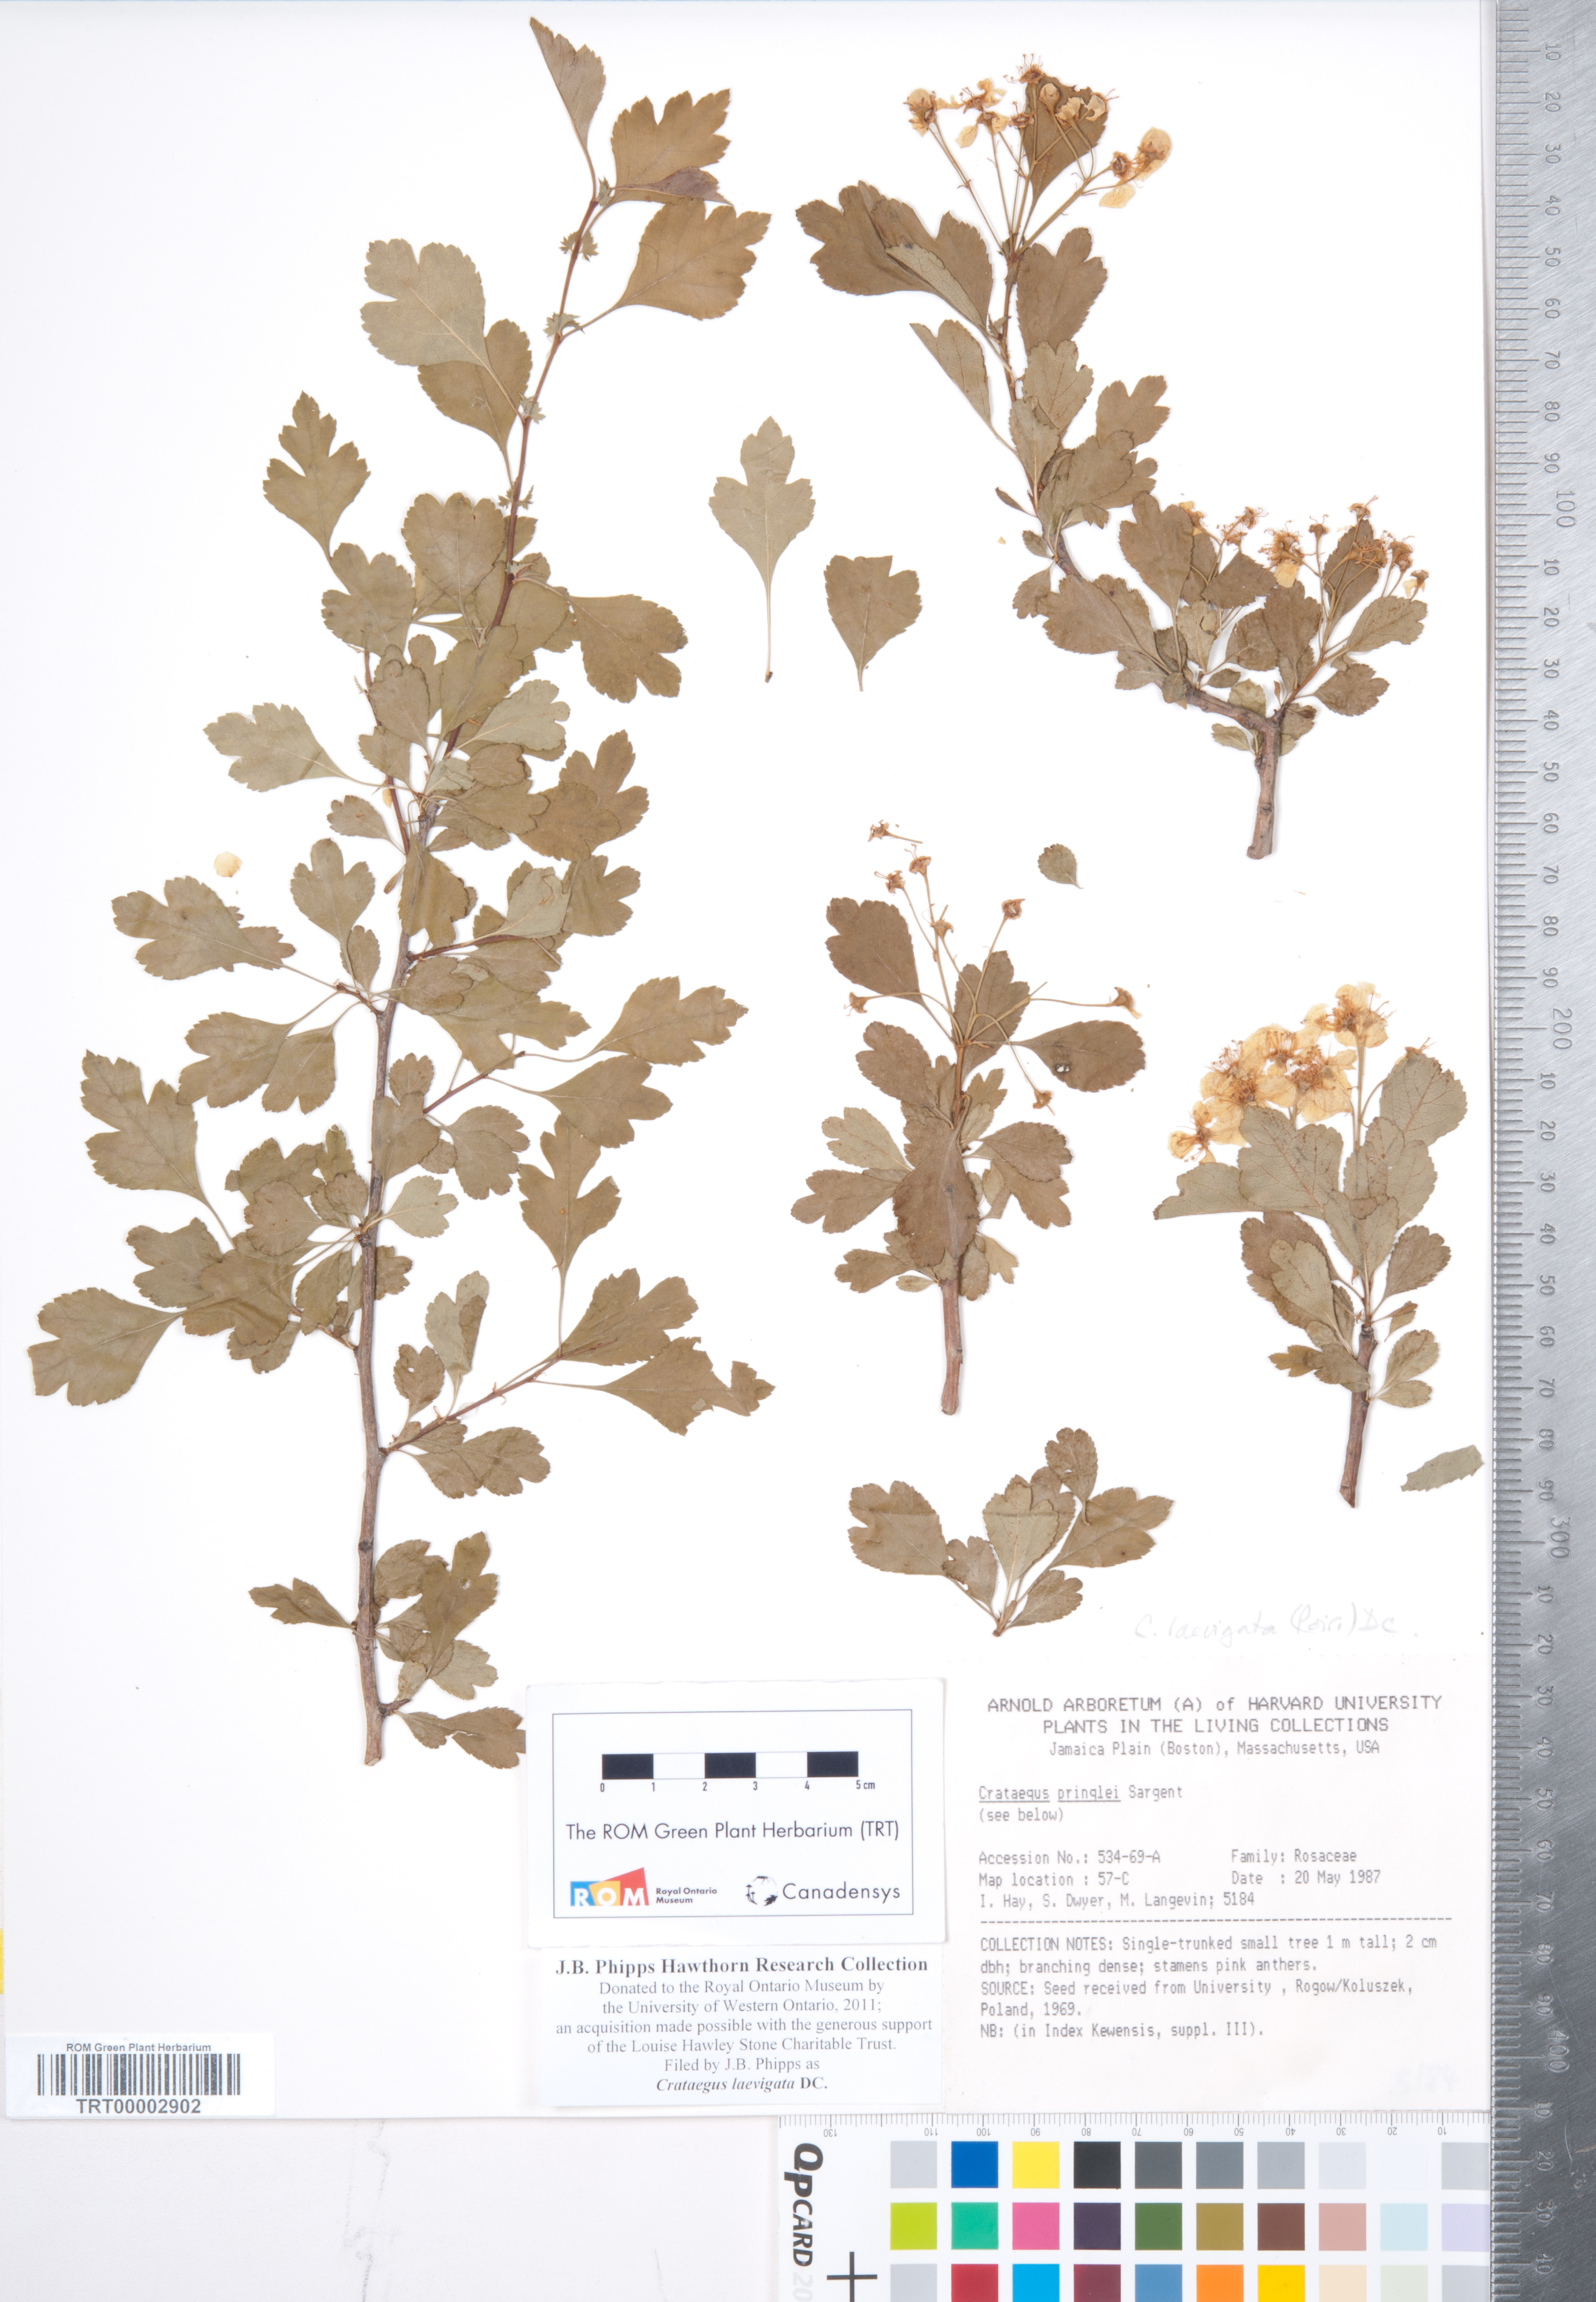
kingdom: Plantae
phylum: Tracheophyta
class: Magnoliopsida
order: Rosales
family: Rosaceae
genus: Crataegus
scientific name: Crataegus laevigata
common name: Midland hawthorn
